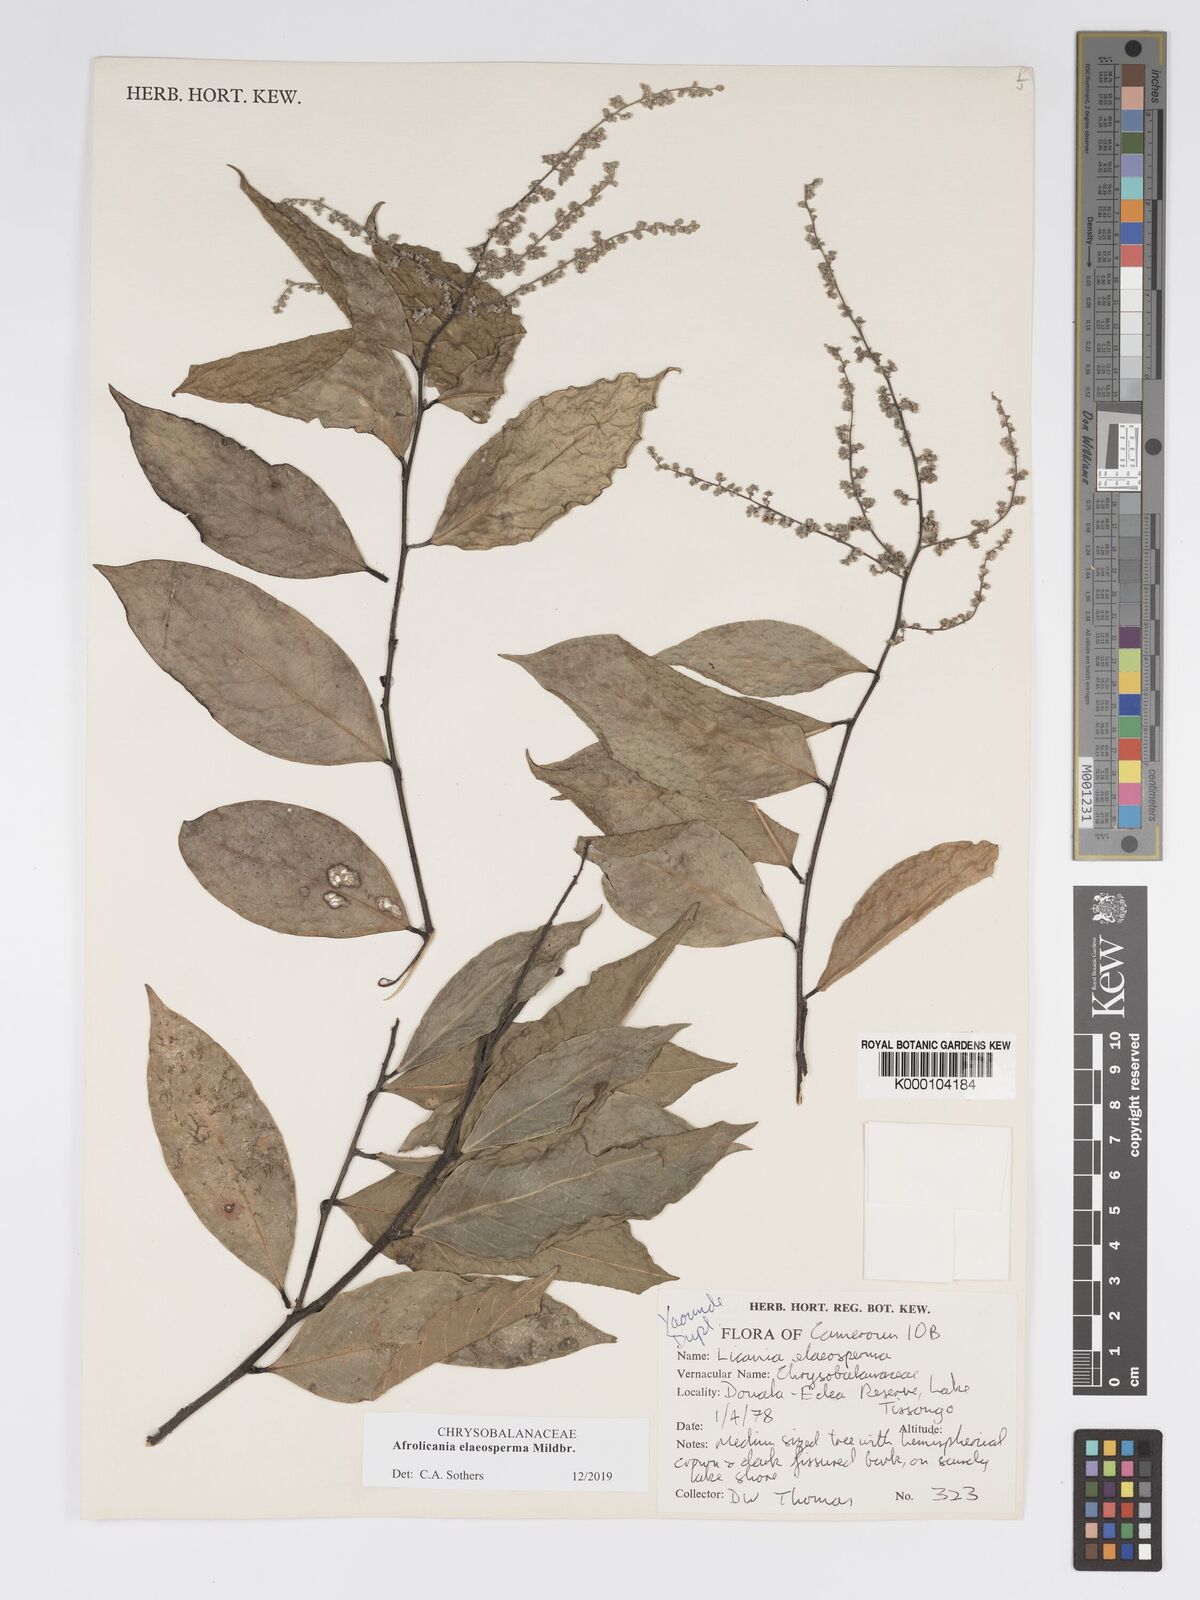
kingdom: Plantae
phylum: Tracheophyta
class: Magnoliopsida
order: Malpighiales
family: Chrysobalanaceae
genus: Afrolicania
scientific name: Afrolicania elaeosperma
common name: Nikko
